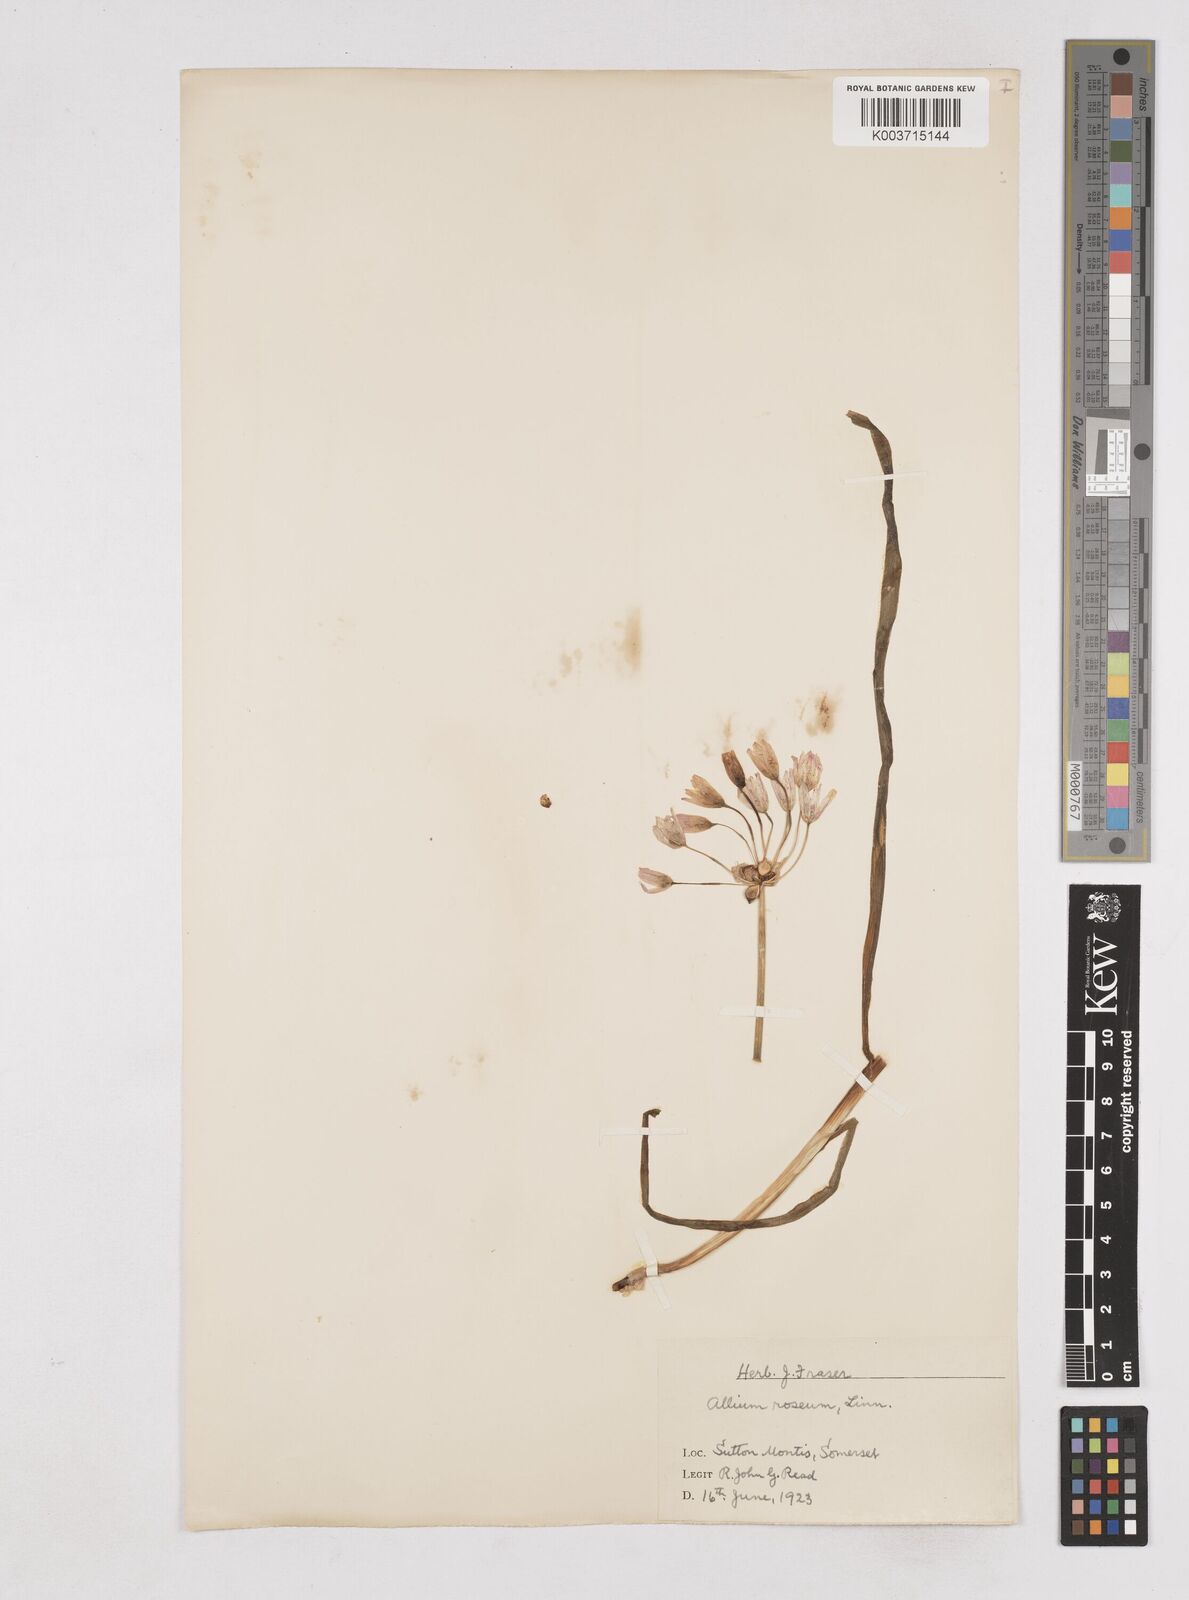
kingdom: Plantae
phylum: Tracheophyta
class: Liliopsida
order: Asparagales
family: Amaryllidaceae
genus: Allium
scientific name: Allium roseum
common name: Rosy garlic
